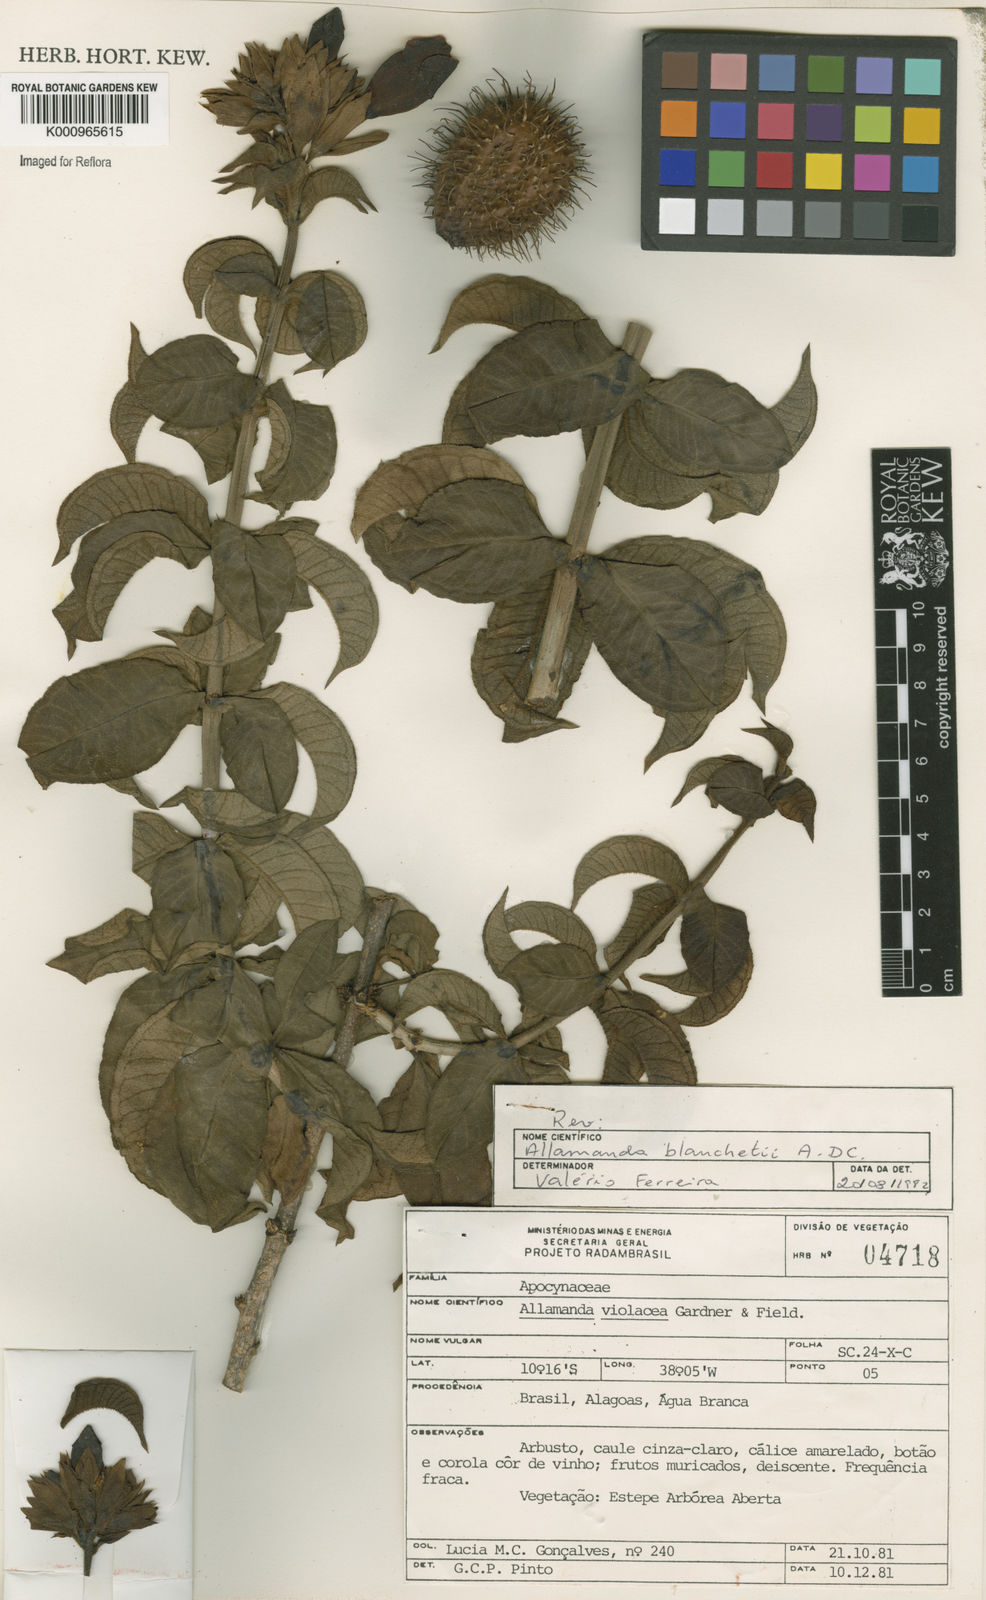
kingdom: Plantae
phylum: Tracheophyta
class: Magnoliopsida
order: Gentianales
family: Apocynaceae
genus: Allamanda
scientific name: Allamanda blanchetii
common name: Purple allamanda
